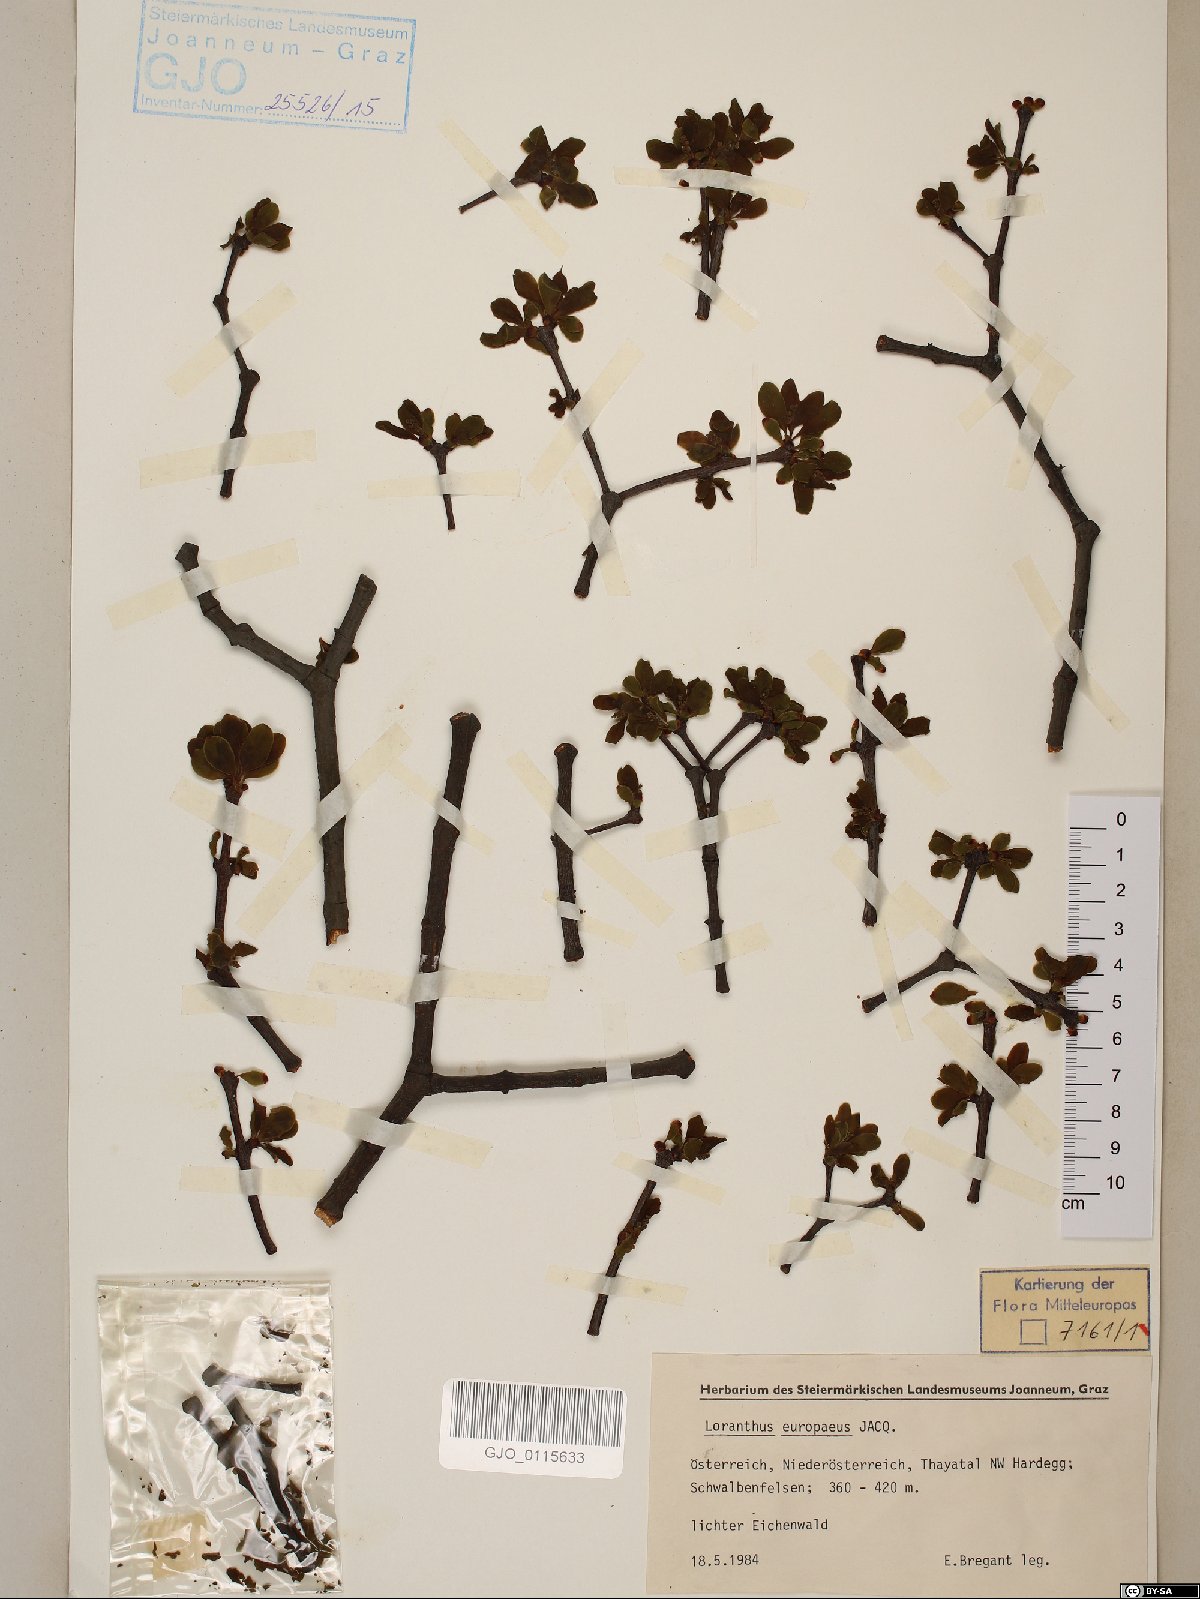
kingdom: Plantae
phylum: Tracheophyta
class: Magnoliopsida
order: Santalales
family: Loranthaceae
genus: Loranthus
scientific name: Loranthus europaeus
